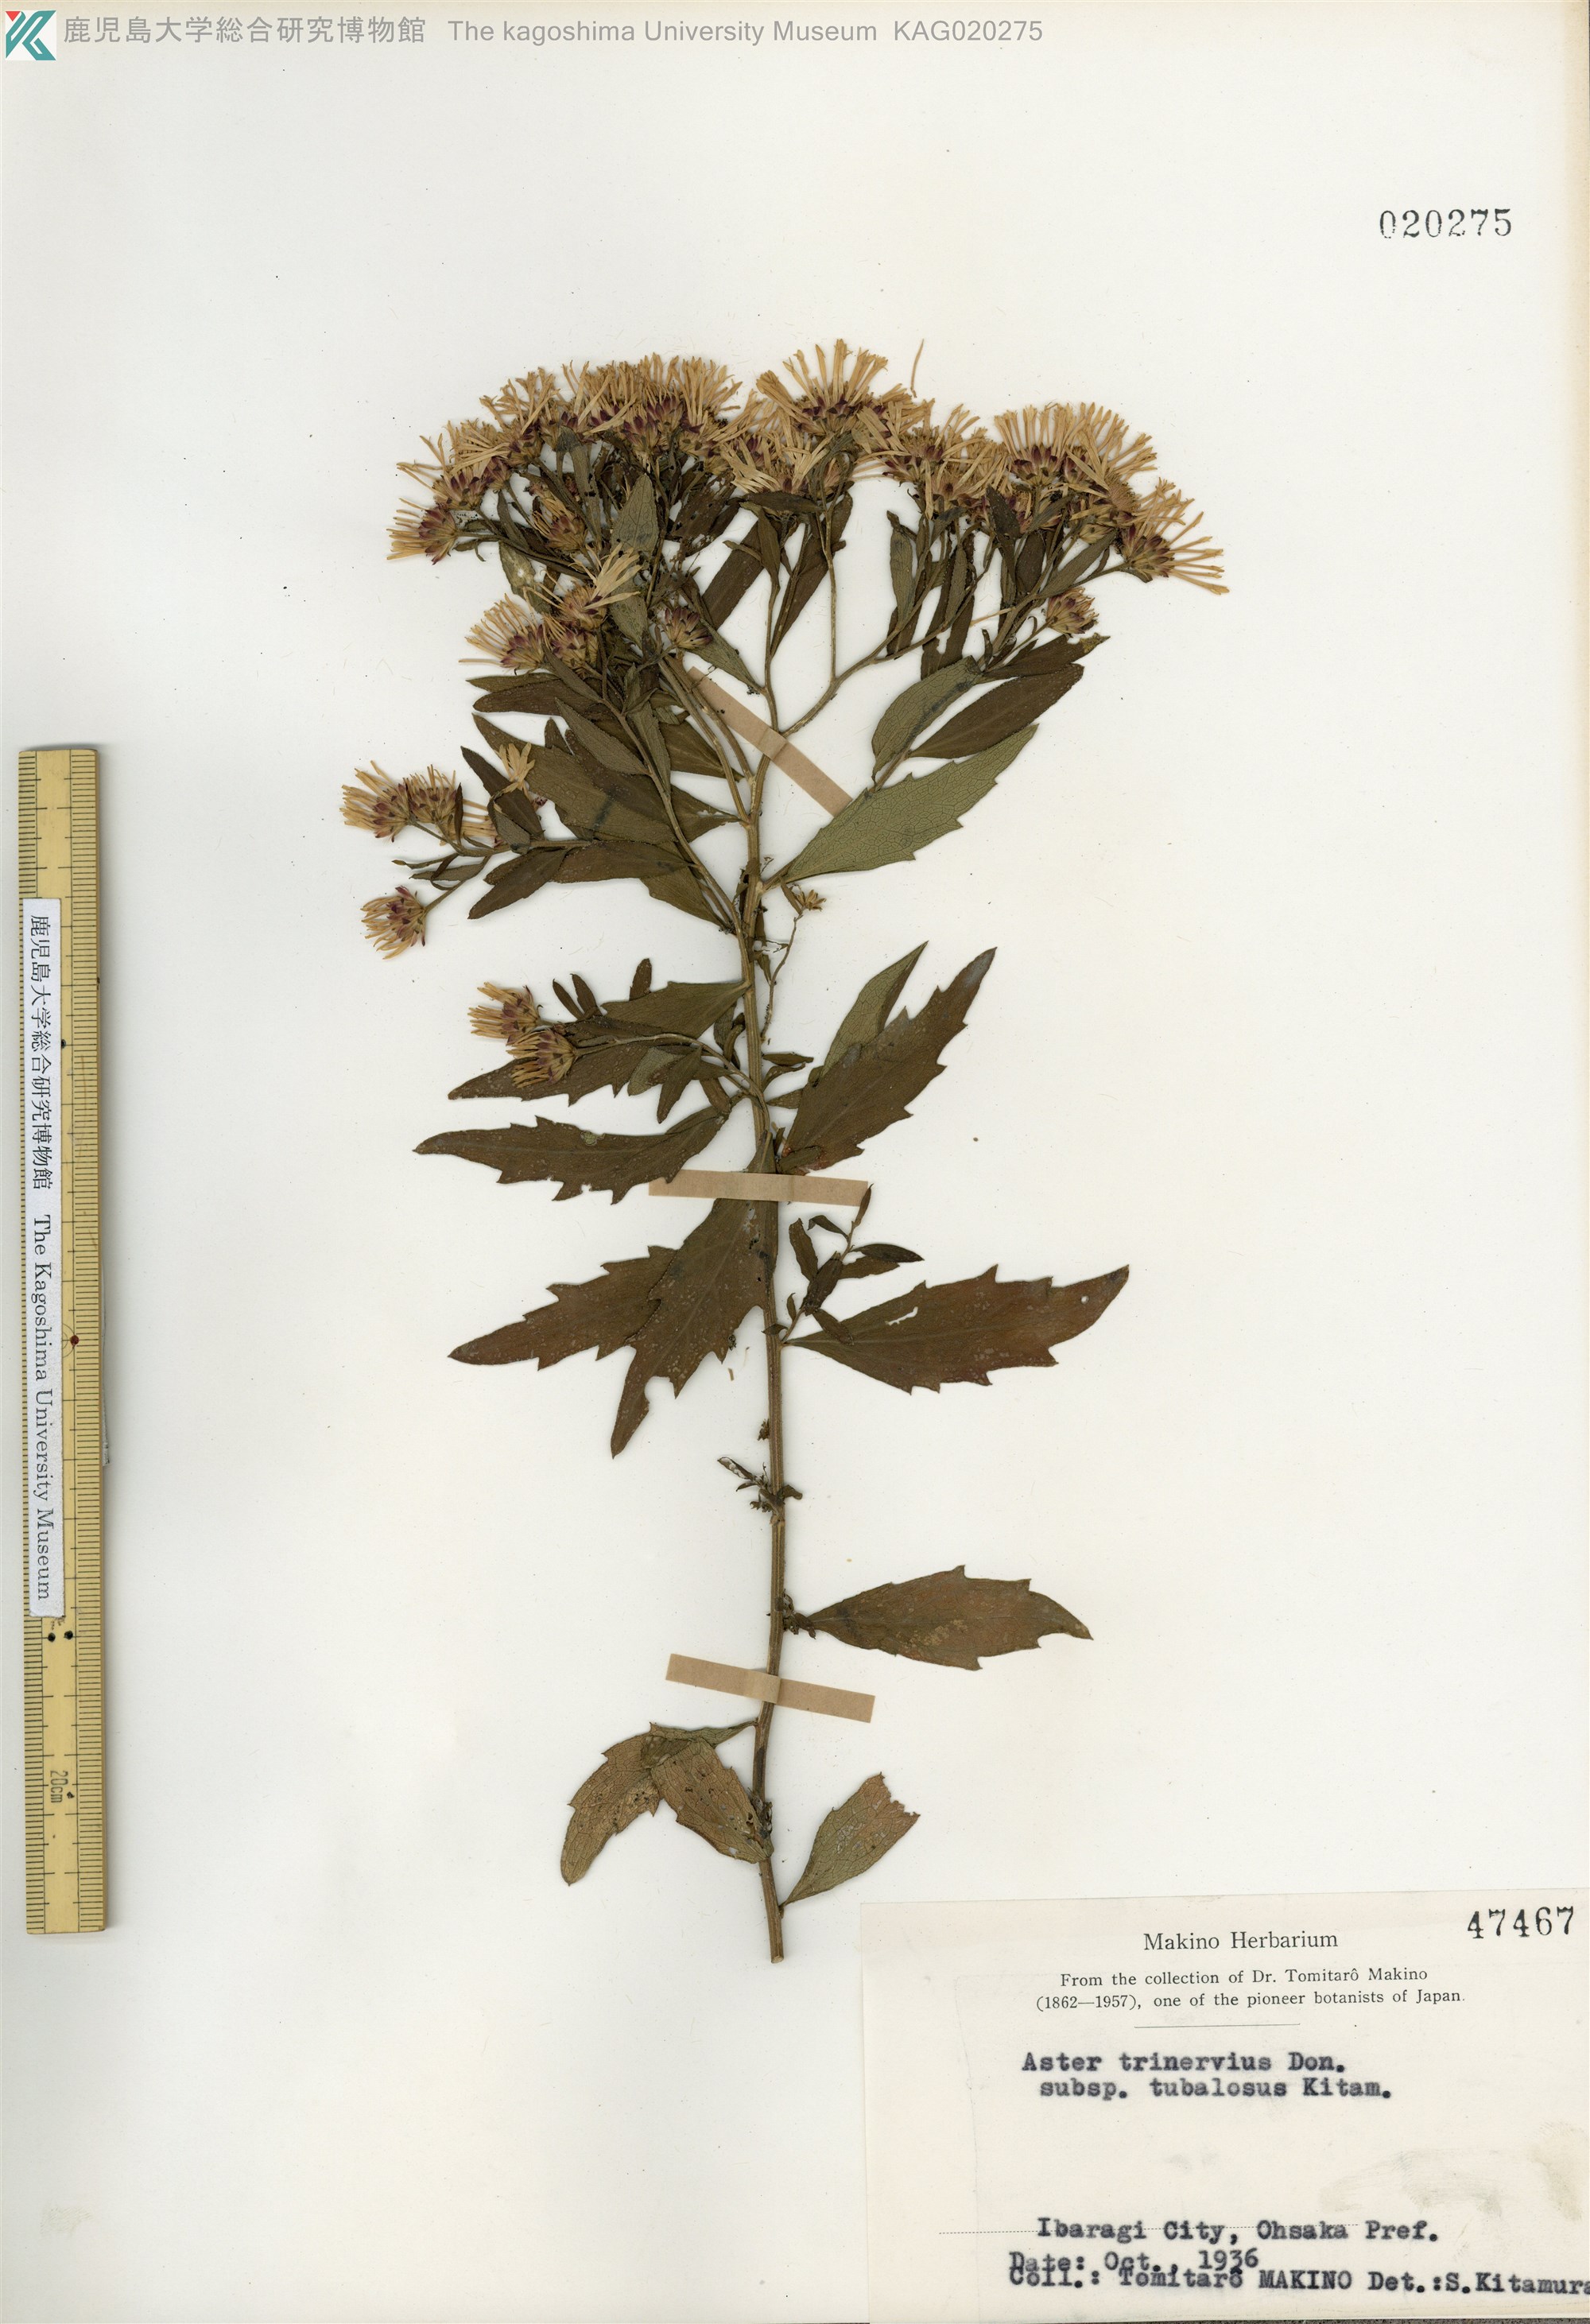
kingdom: Plantae
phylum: Tracheophyta
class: Magnoliopsida
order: Asterales
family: Asteraceae
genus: Aster
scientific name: Aster microcephalus
